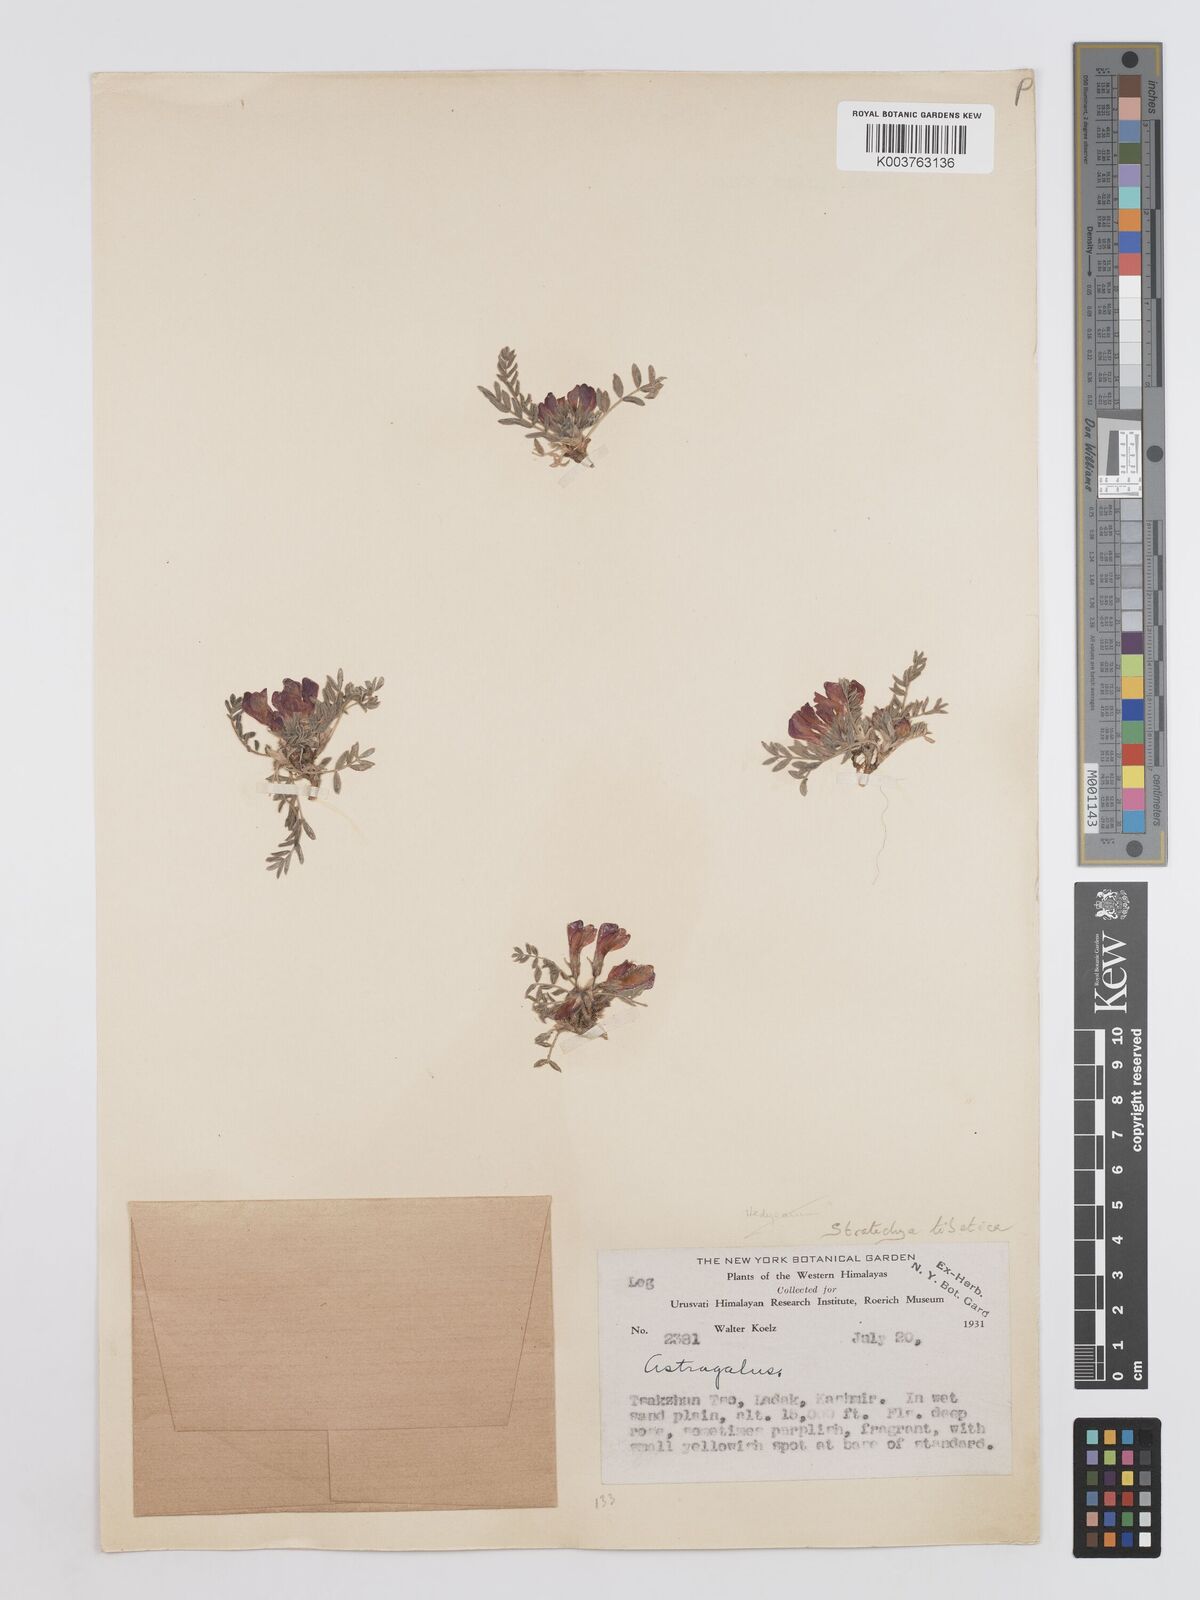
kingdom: Plantae
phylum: Tracheophyta
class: Magnoliopsida
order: Fabales
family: Fabaceae
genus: Hedysarum
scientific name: Hedysarum tibeticum
